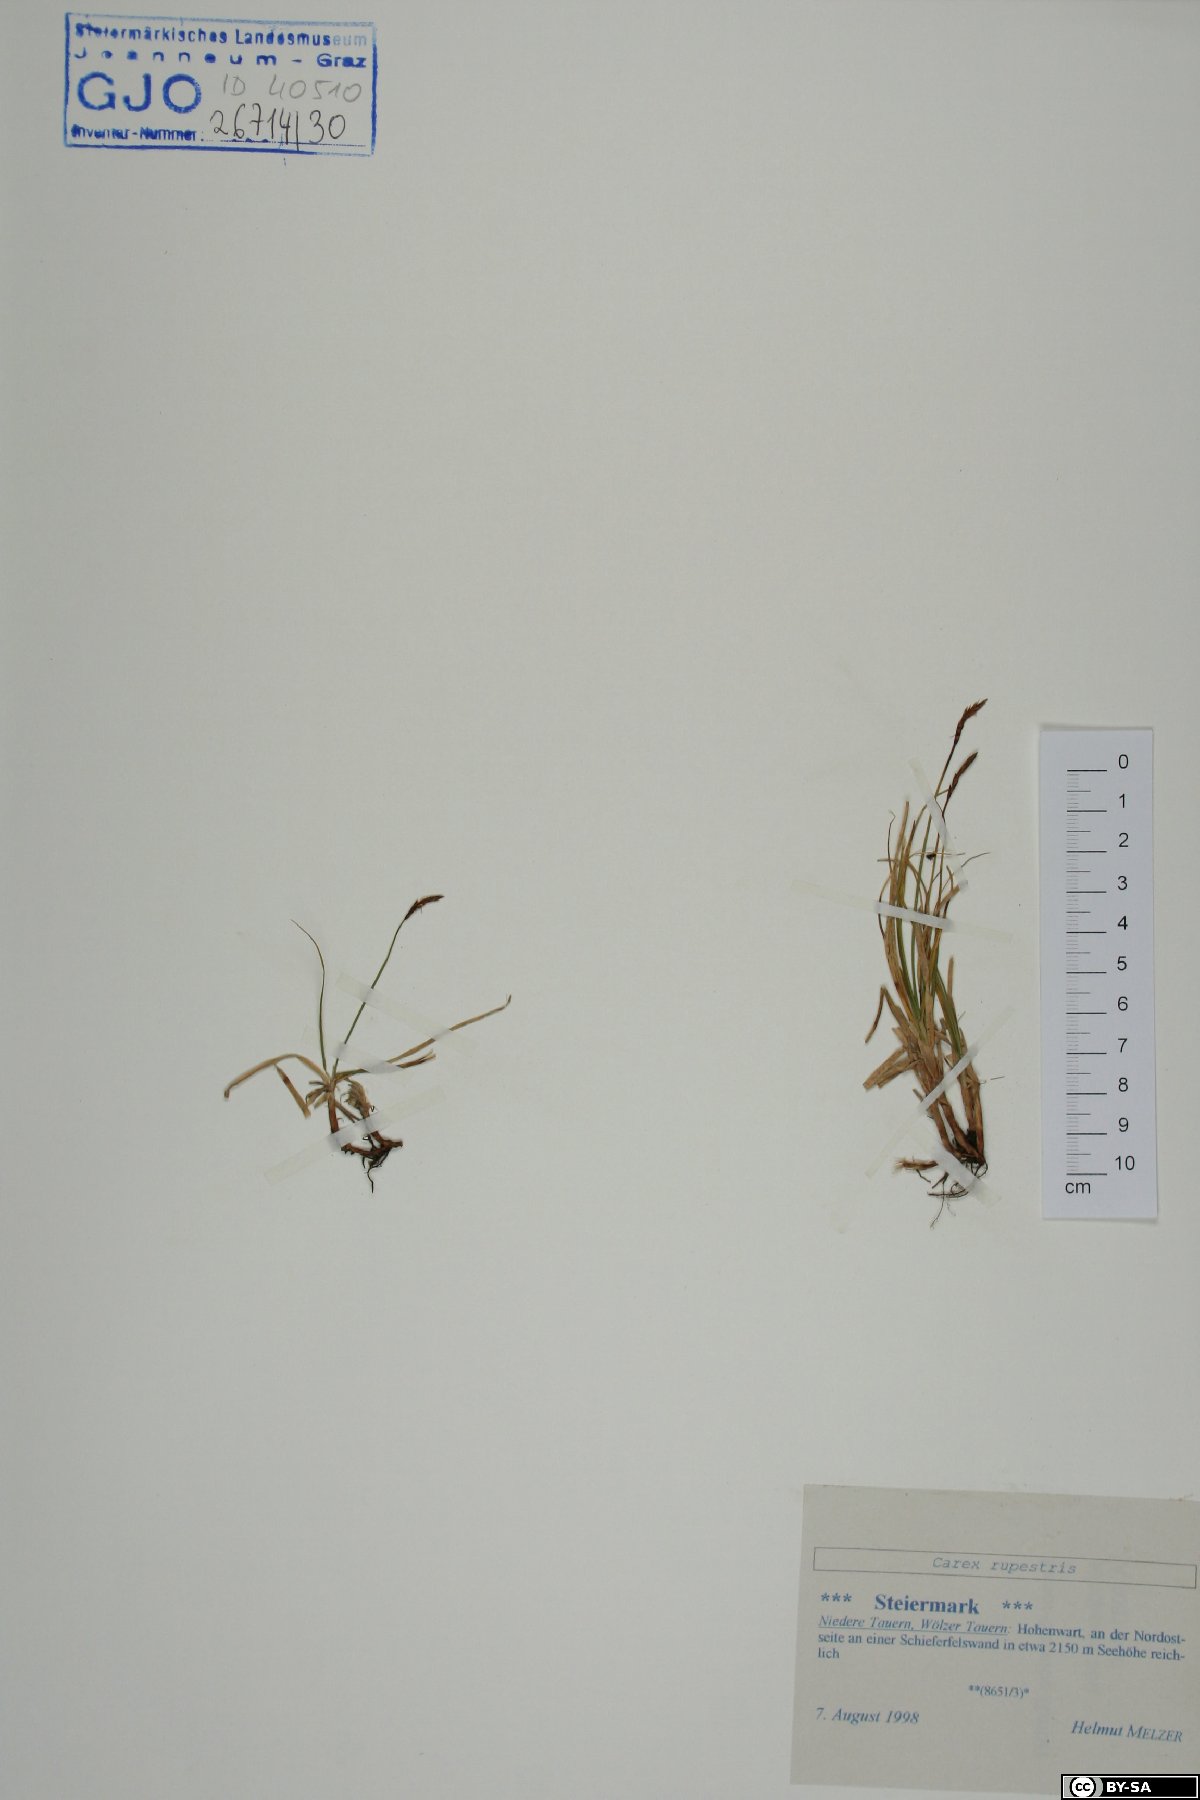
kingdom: Plantae
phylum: Tracheophyta
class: Liliopsida
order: Poales
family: Cyperaceae
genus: Carex
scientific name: Carex rupestris
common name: Rock sedge
